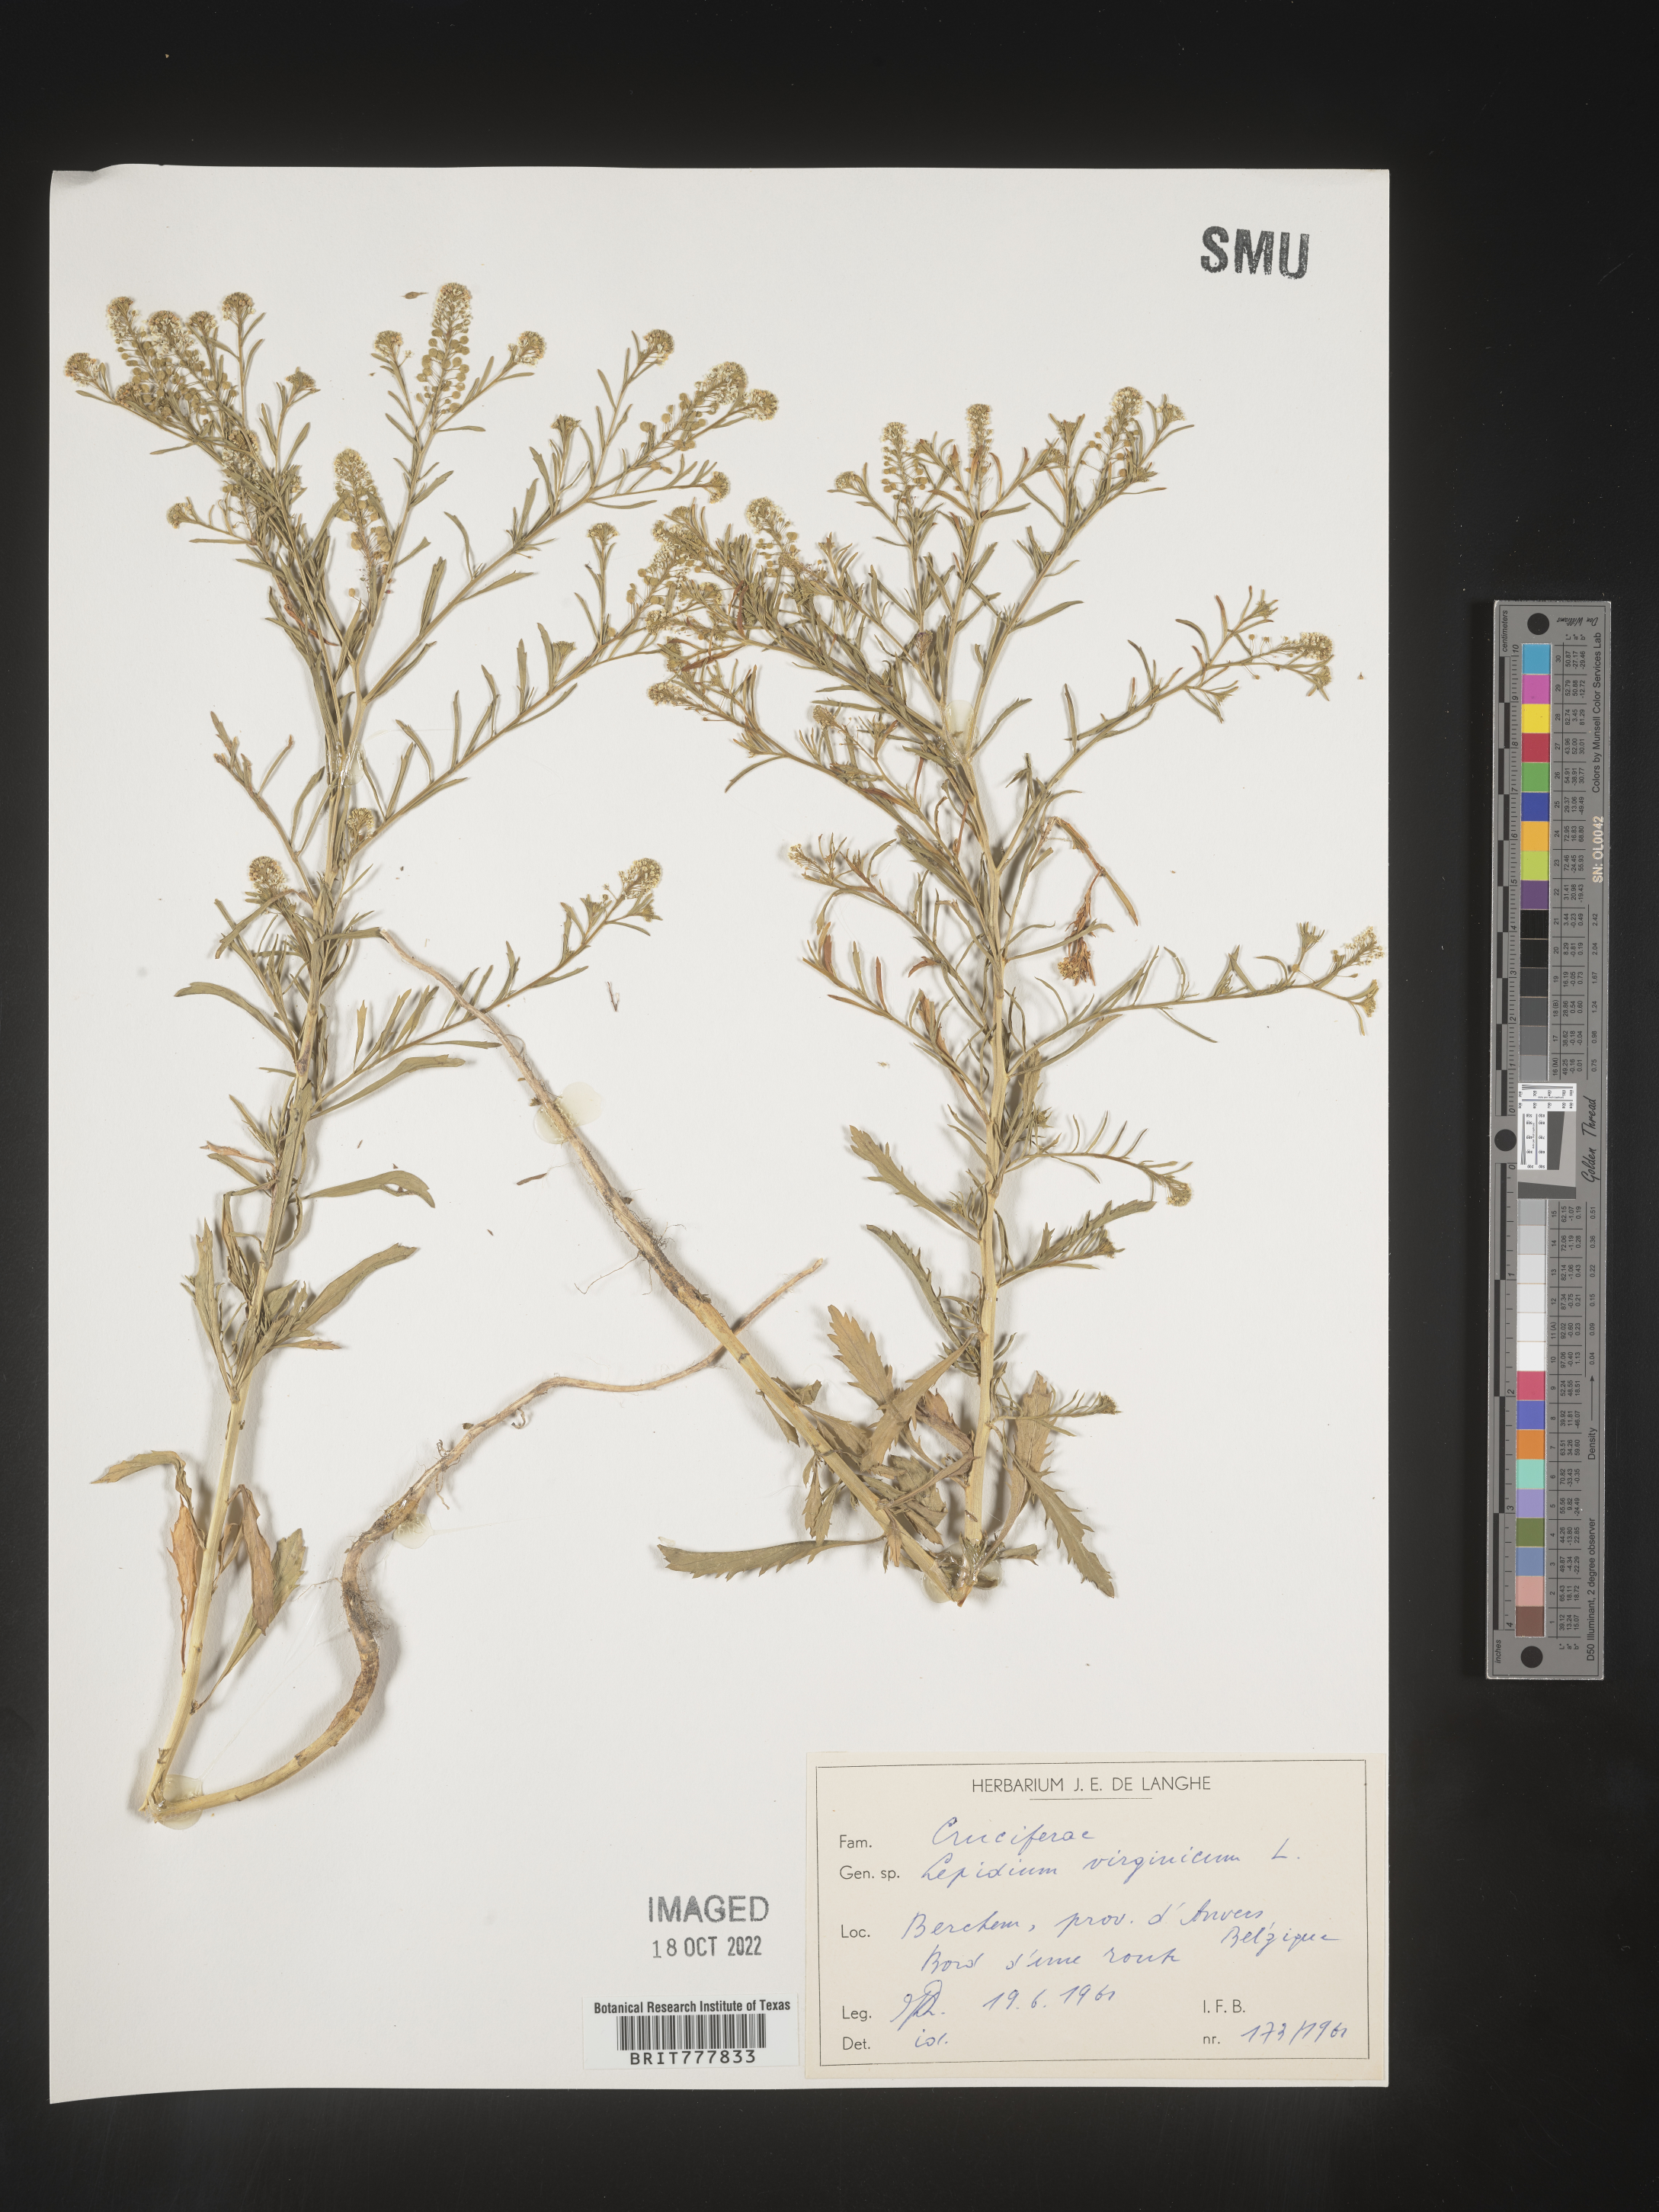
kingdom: Plantae
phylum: Tracheophyta
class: Magnoliopsida
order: Brassicales
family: Brassicaceae
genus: Lepidium
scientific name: Lepidium
